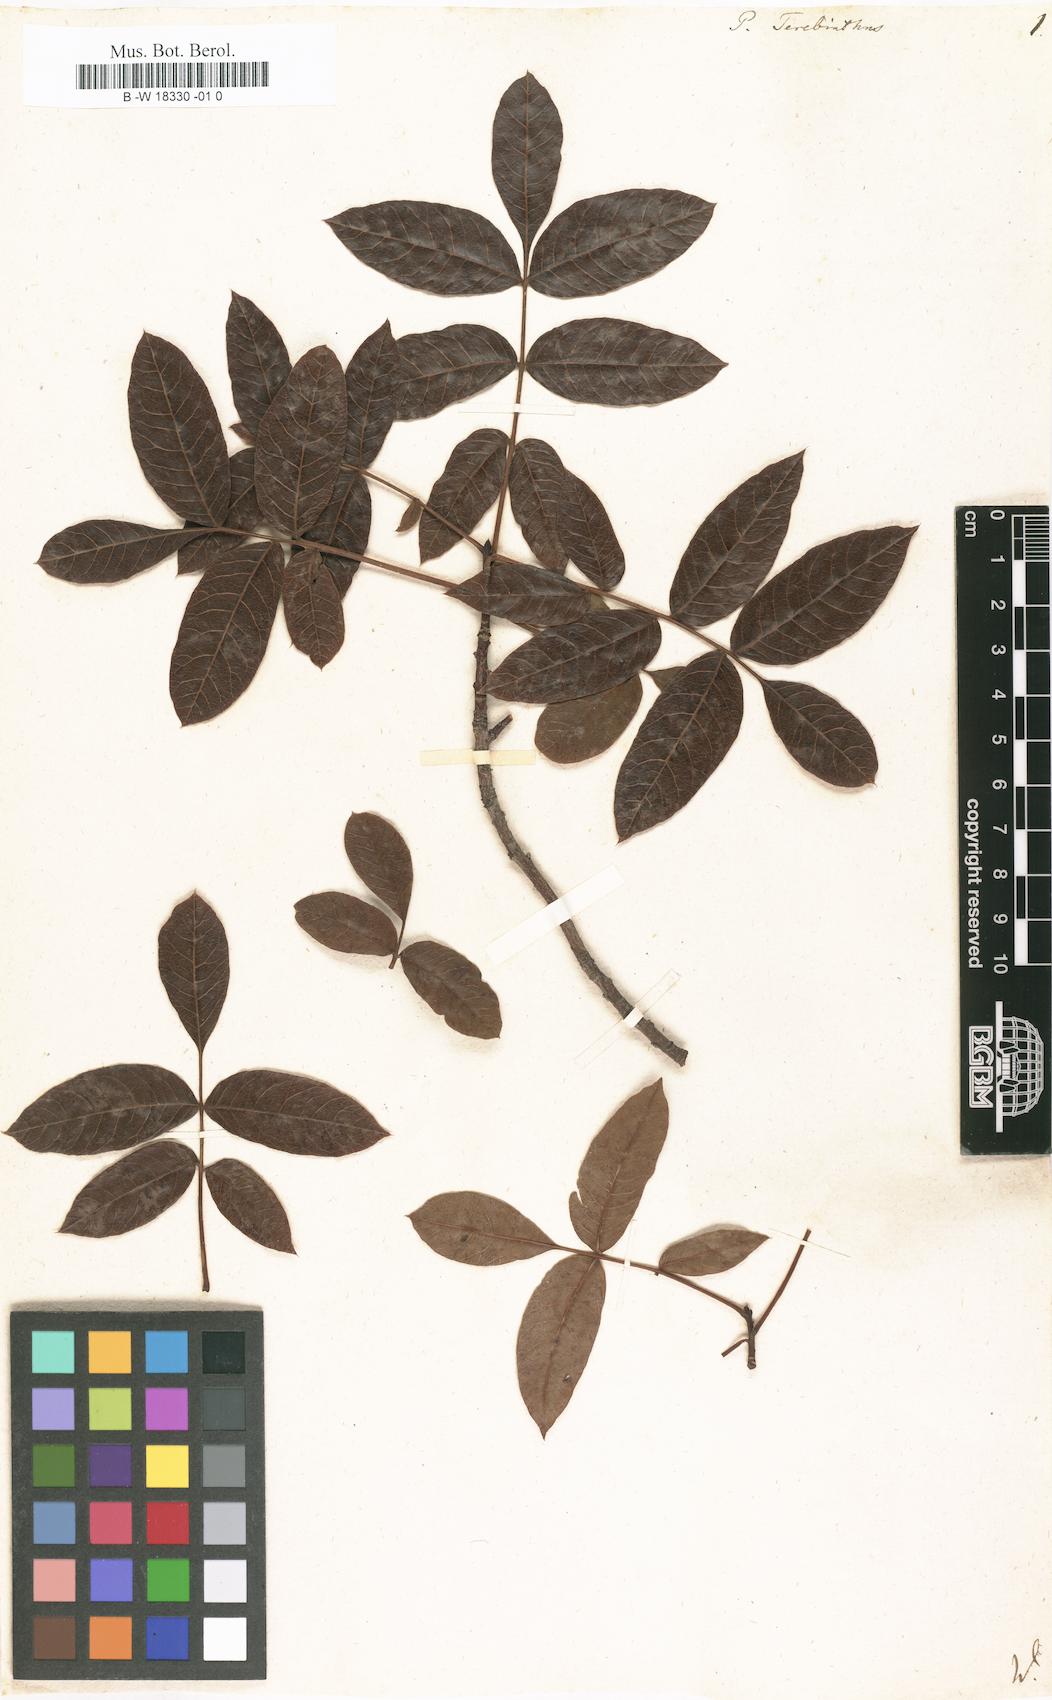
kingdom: Plantae
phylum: Tracheophyta
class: Magnoliopsida
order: Sapindales
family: Anacardiaceae
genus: Pistacia
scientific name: Pistacia terebinthus
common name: Terebinth
